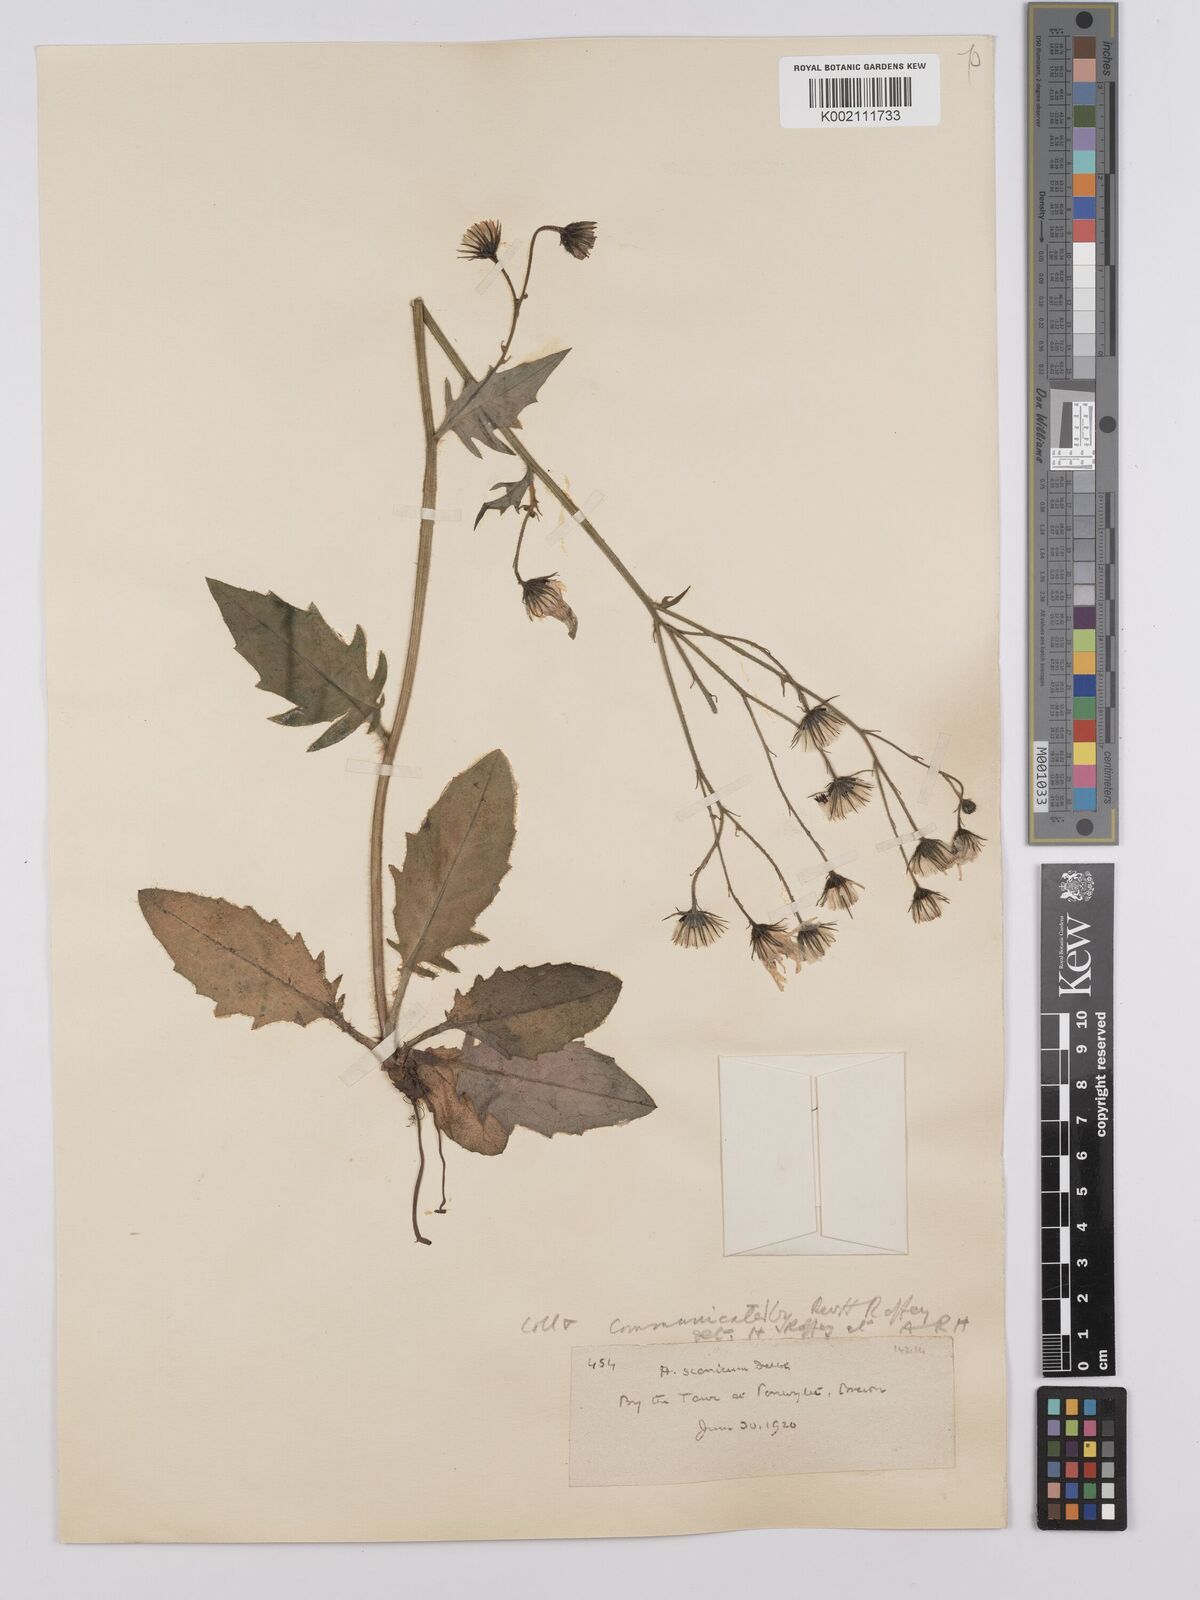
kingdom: Plantae
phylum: Tracheophyta
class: Magnoliopsida
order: Asterales
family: Asteraceae
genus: Hieracium
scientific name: Hieracium anglorum
